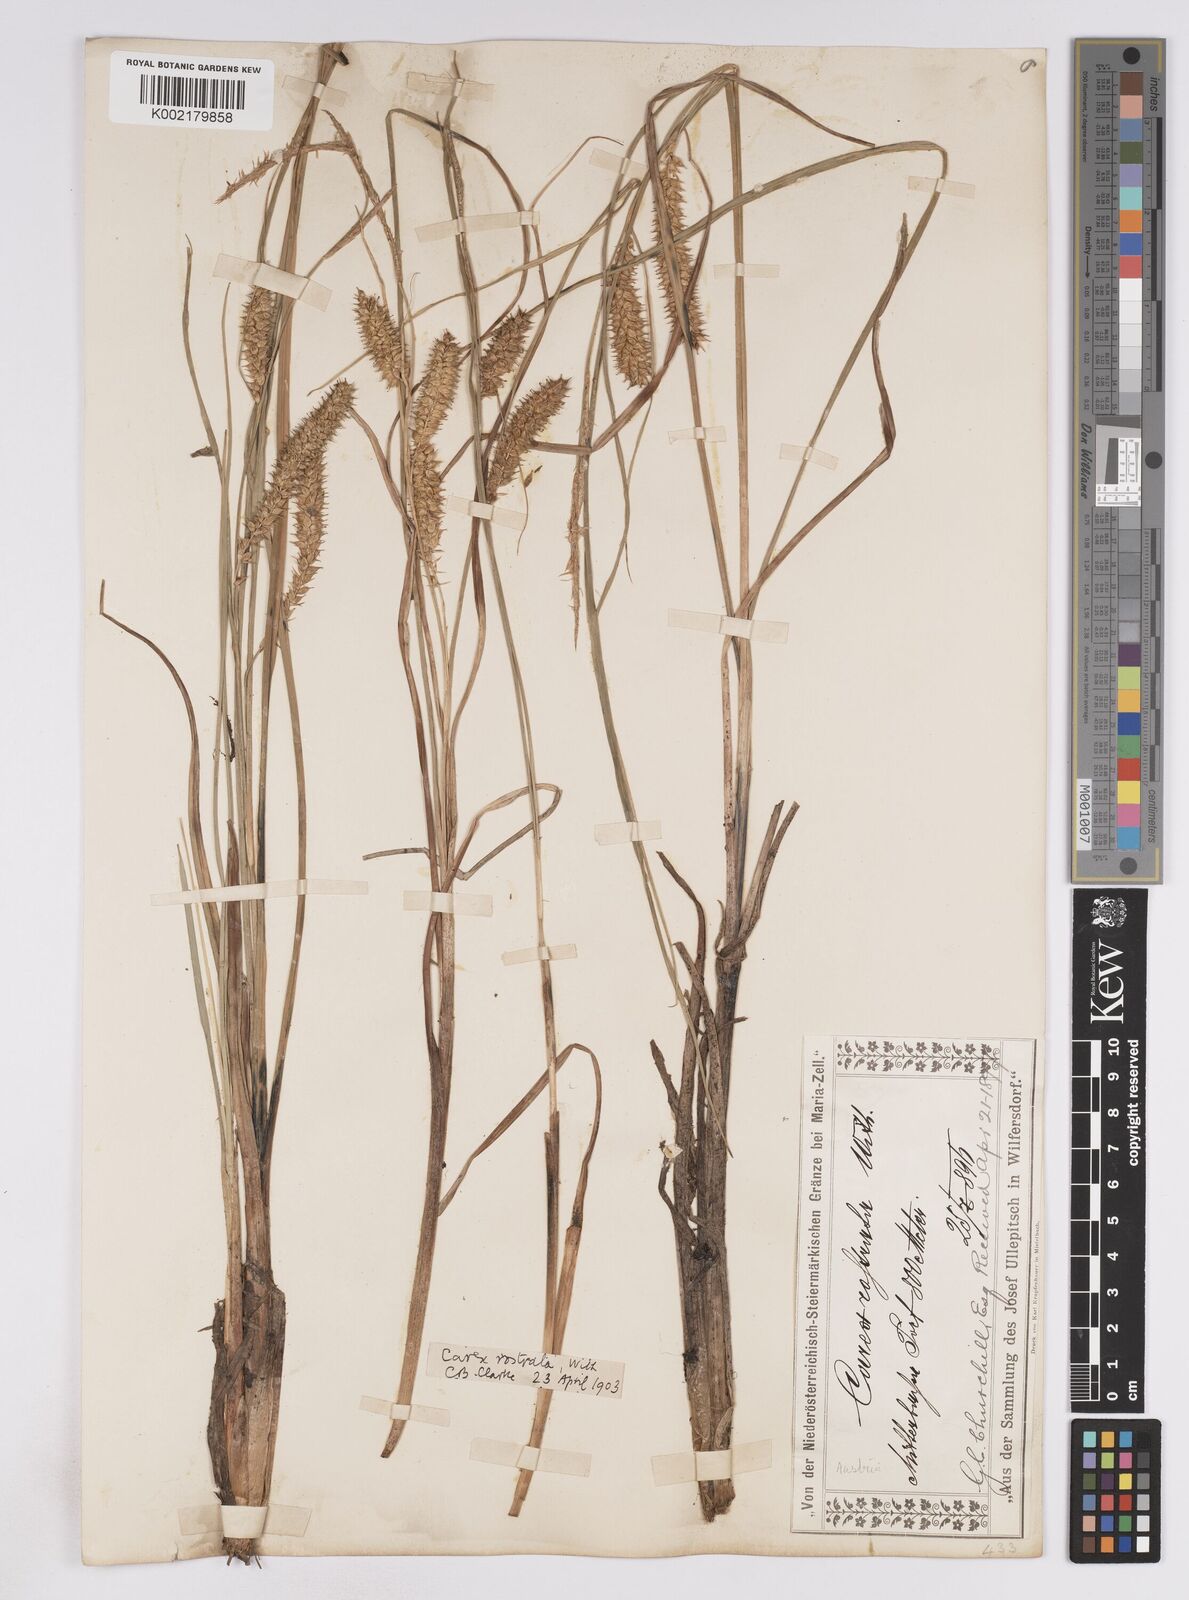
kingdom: Plantae
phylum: Tracheophyta
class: Liliopsida
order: Poales
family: Cyperaceae
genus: Carex
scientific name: Carex rostrata
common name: Bottle sedge
